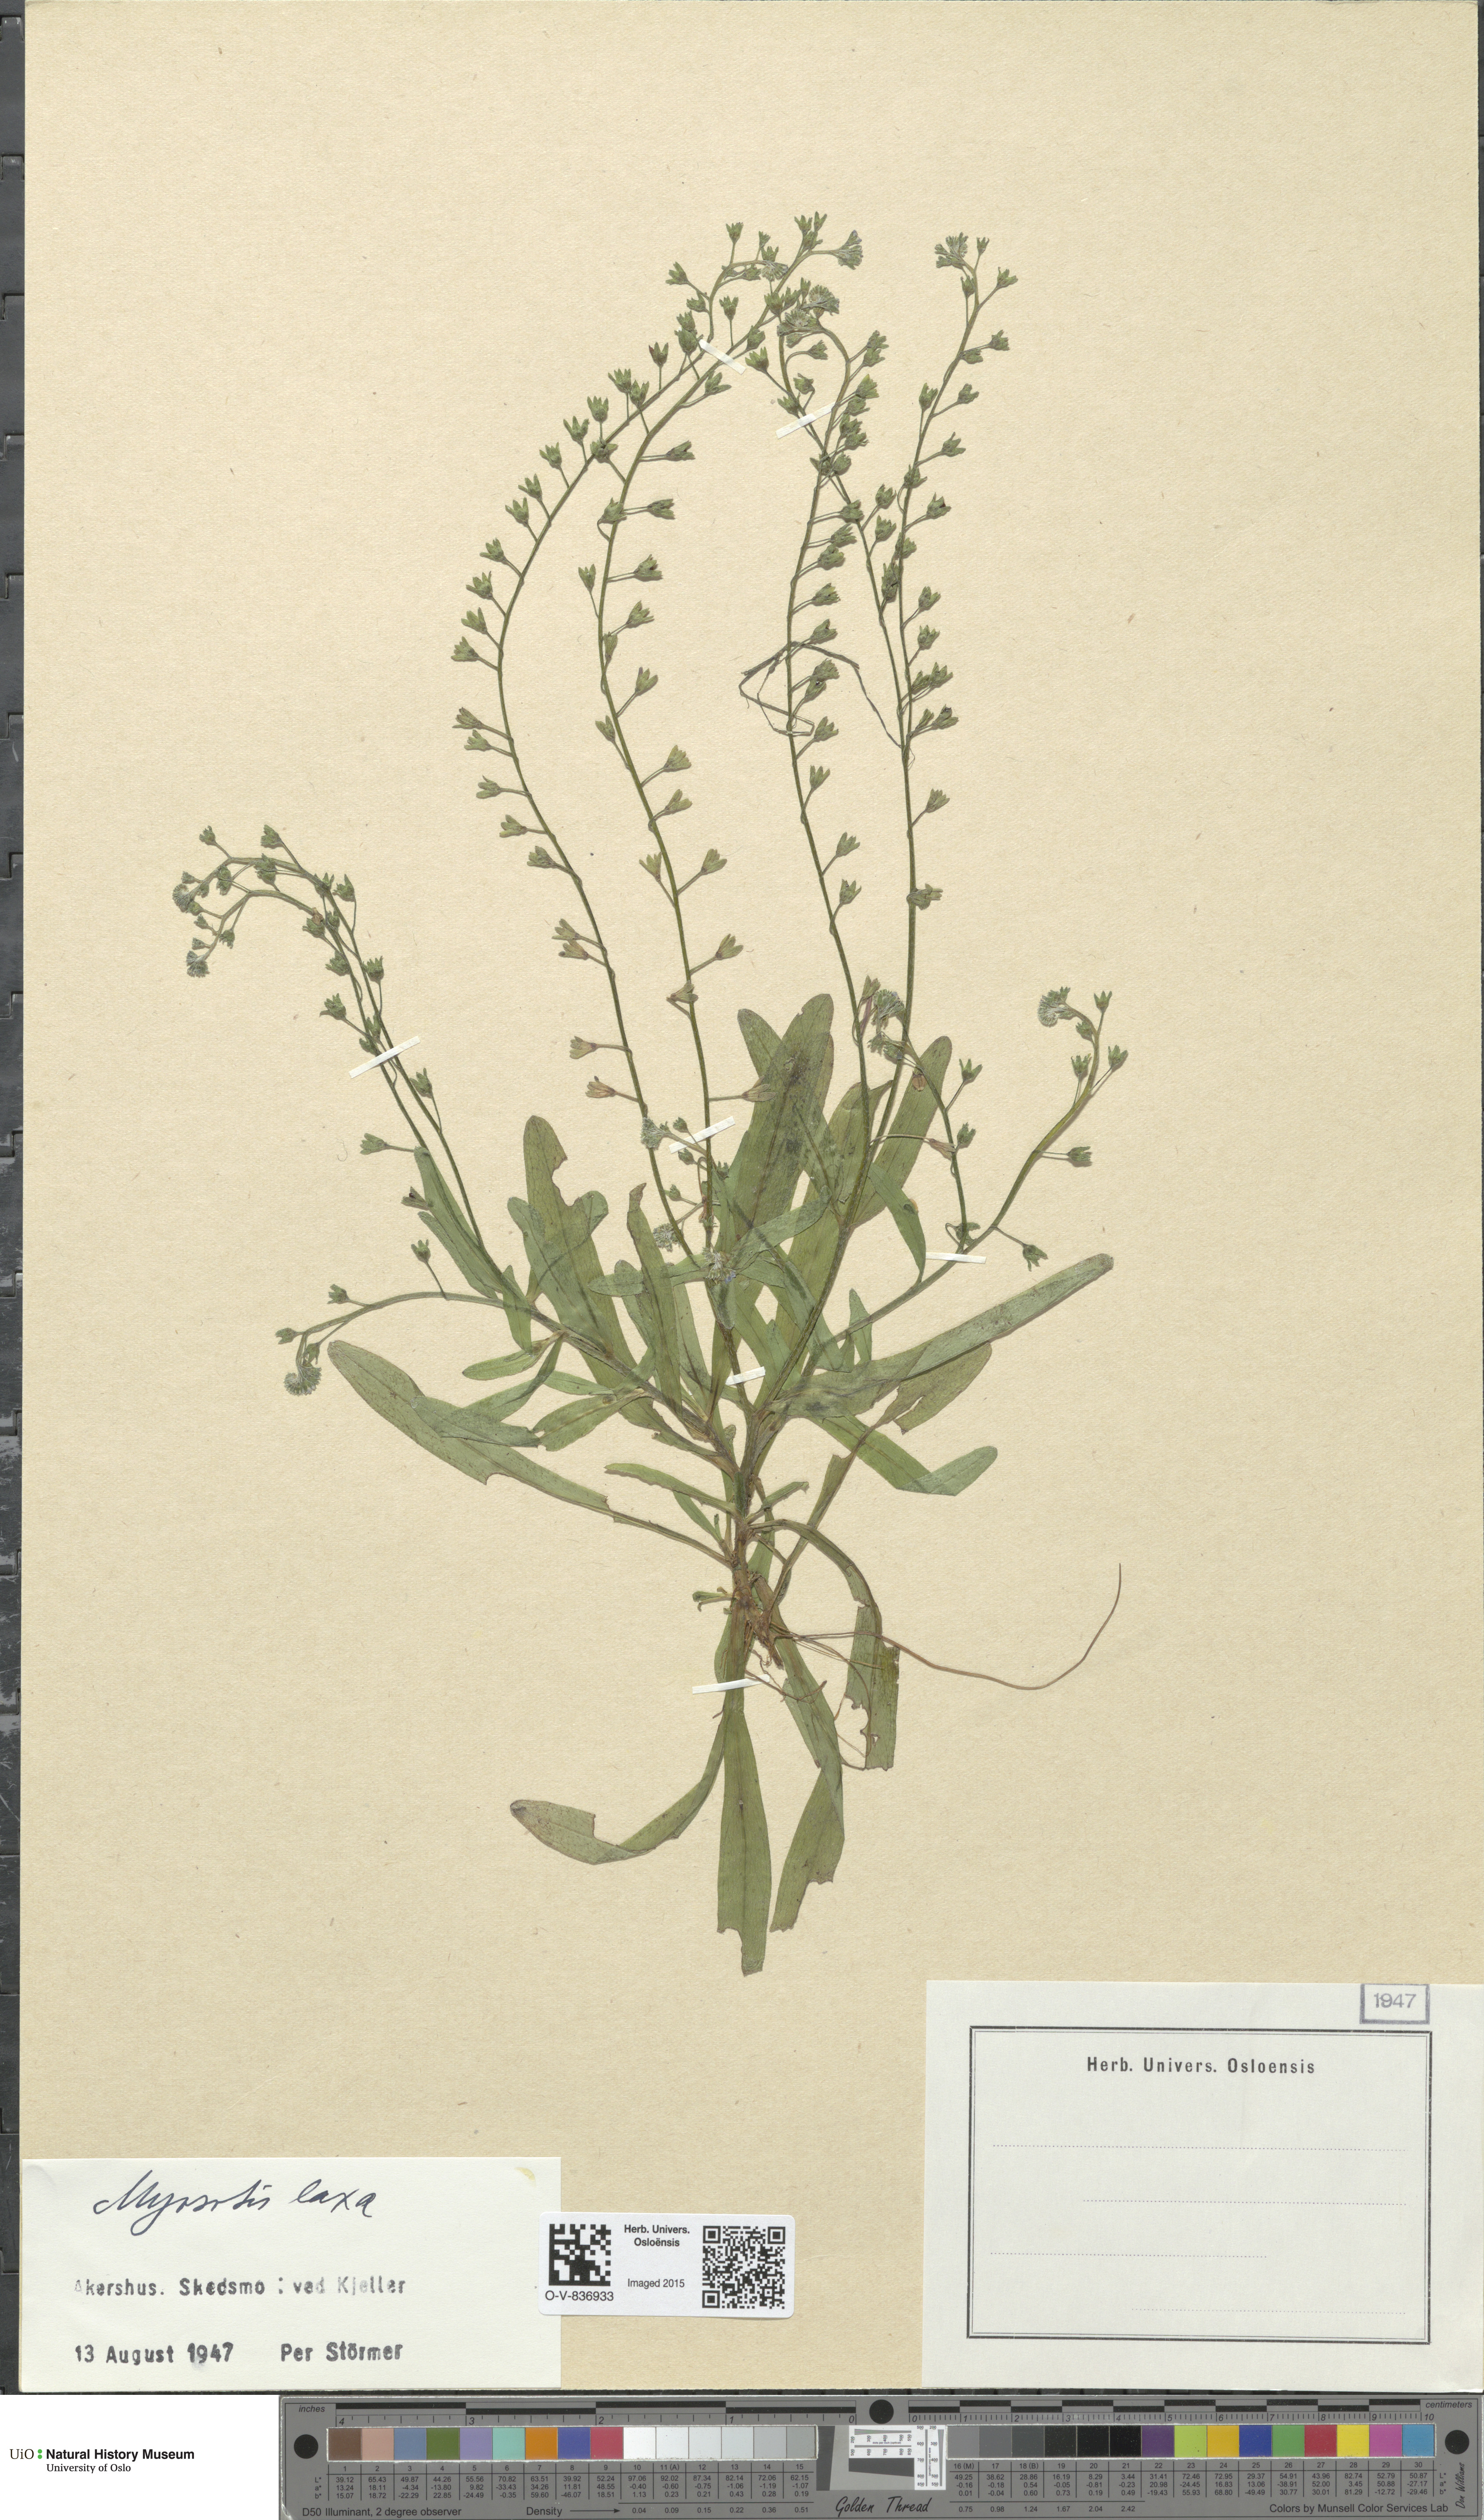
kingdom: Plantae
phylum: Tracheophyta
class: Magnoliopsida
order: Boraginales
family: Boraginaceae
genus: Myosotis
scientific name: Myosotis laxa
